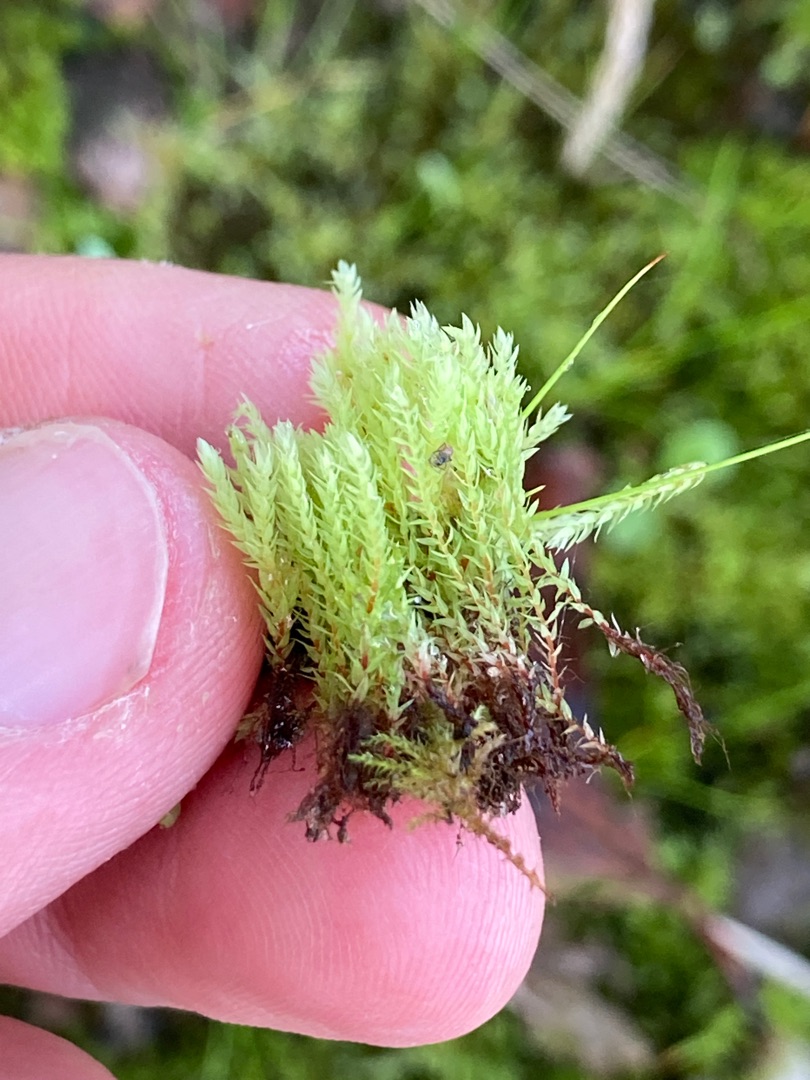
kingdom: Plantae
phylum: Bryophyta
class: Bryopsida
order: Bryales
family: Mniaceae
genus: Pohlia
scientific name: Pohlia wahlenbergii
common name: Lysegrøn voksmos
